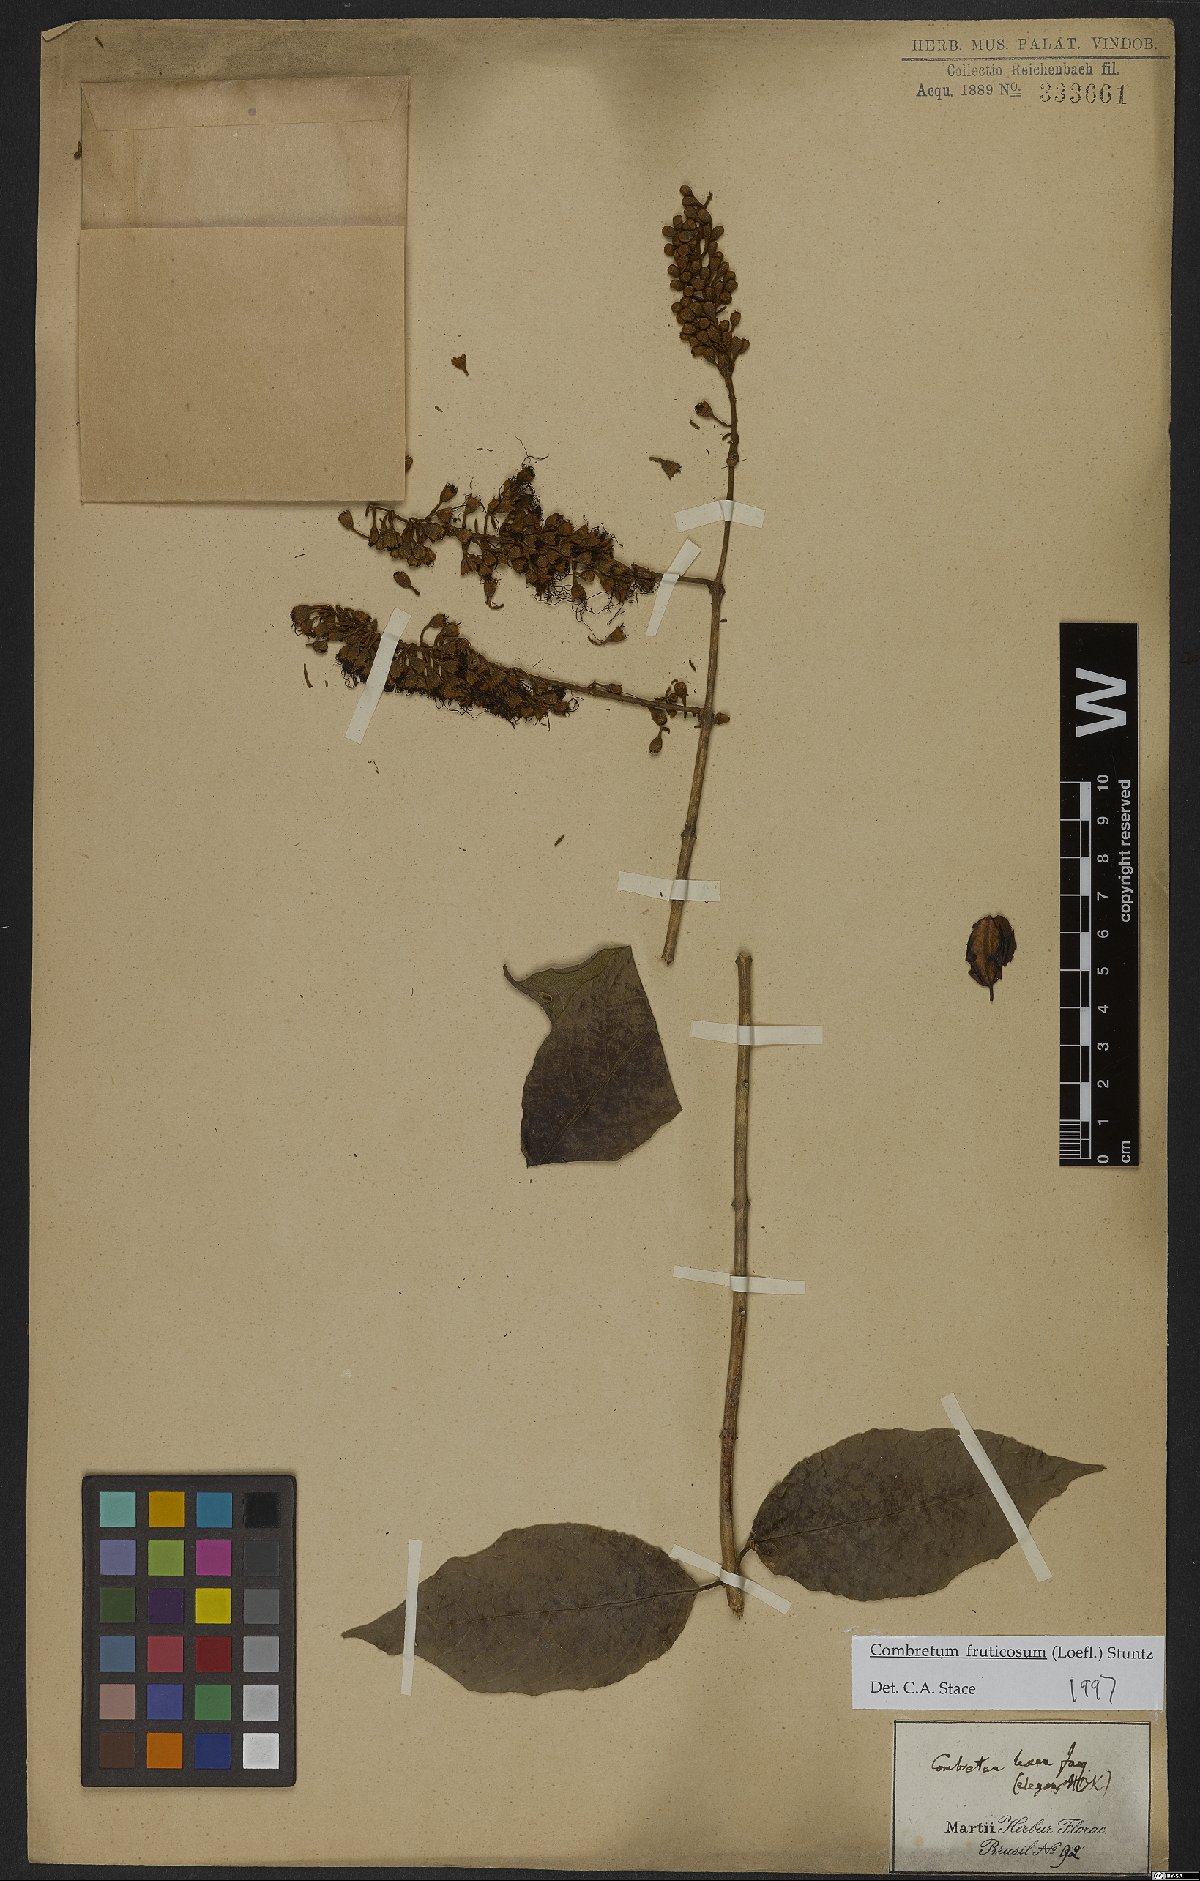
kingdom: Plantae
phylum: Tracheophyta
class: Magnoliopsida
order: Myrtales
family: Combretaceae
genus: Combretum
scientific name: Combretum fruticosum
